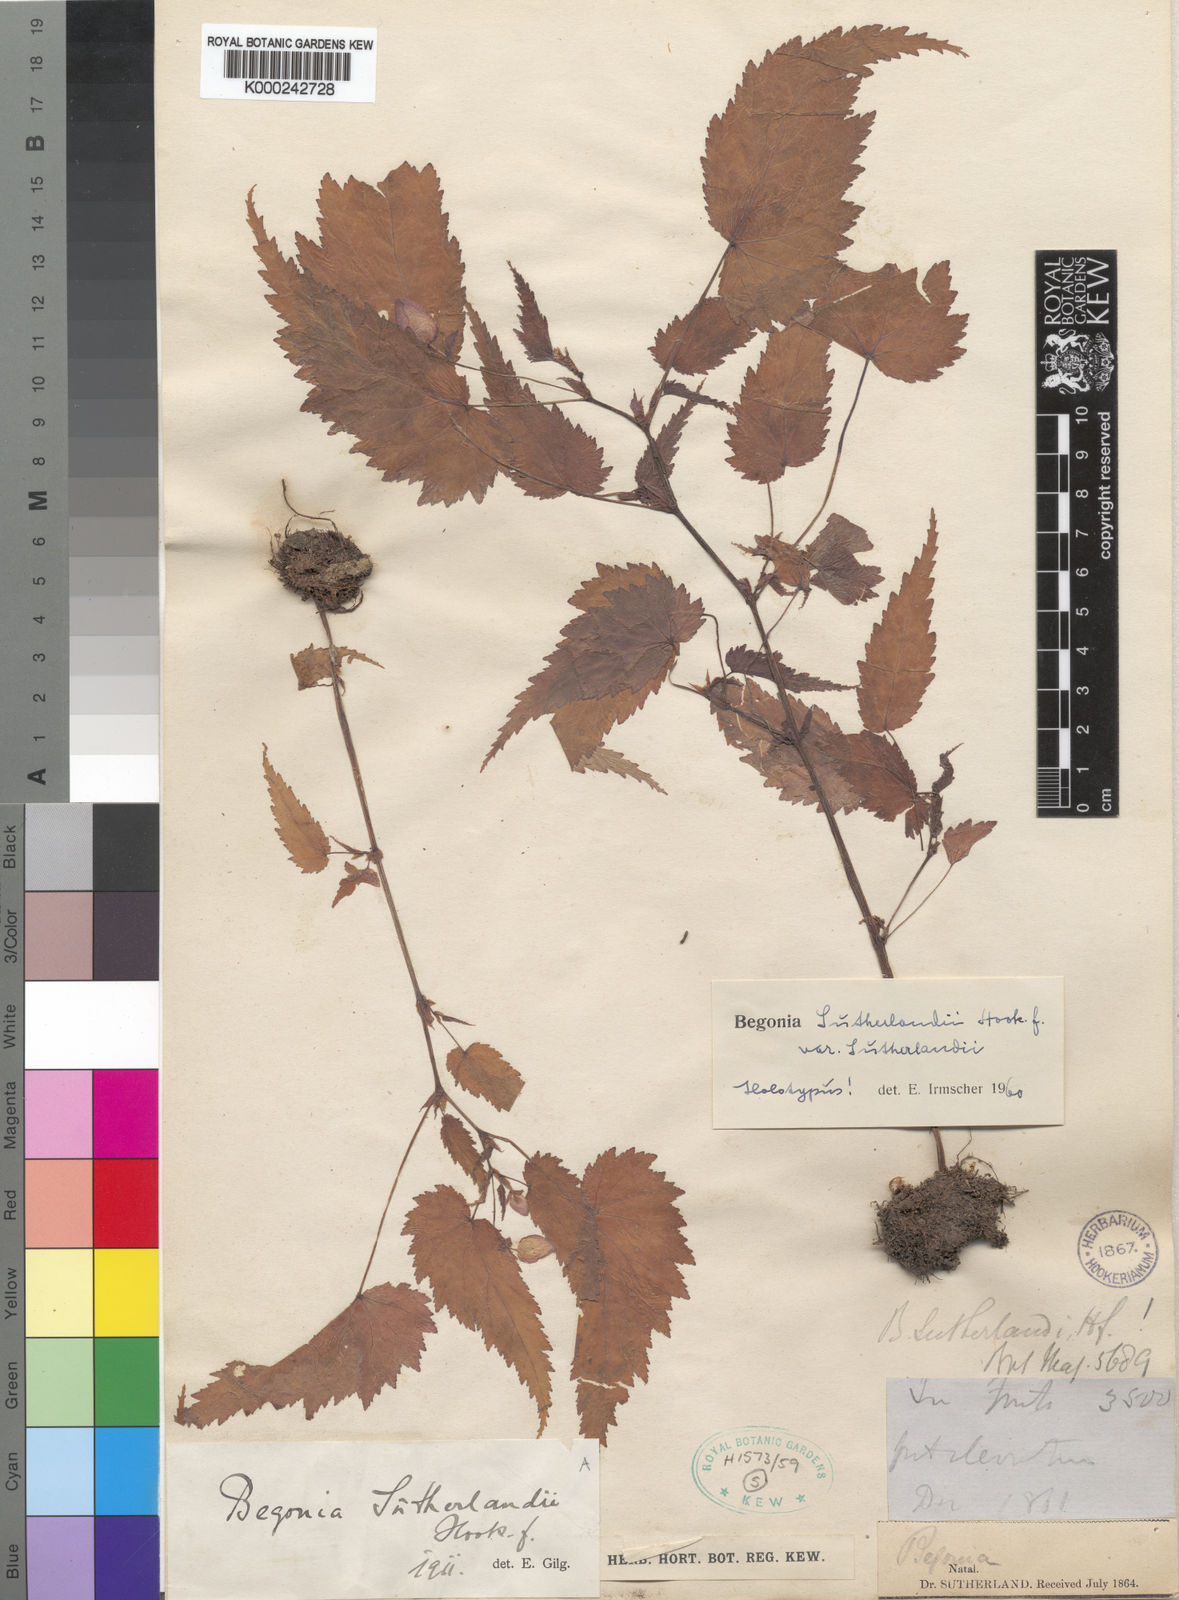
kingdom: Plantae
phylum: Tracheophyta
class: Magnoliopsida
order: Cucurbitales
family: Begoniaceae
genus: Begonia
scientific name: Begonia sutherlandii
